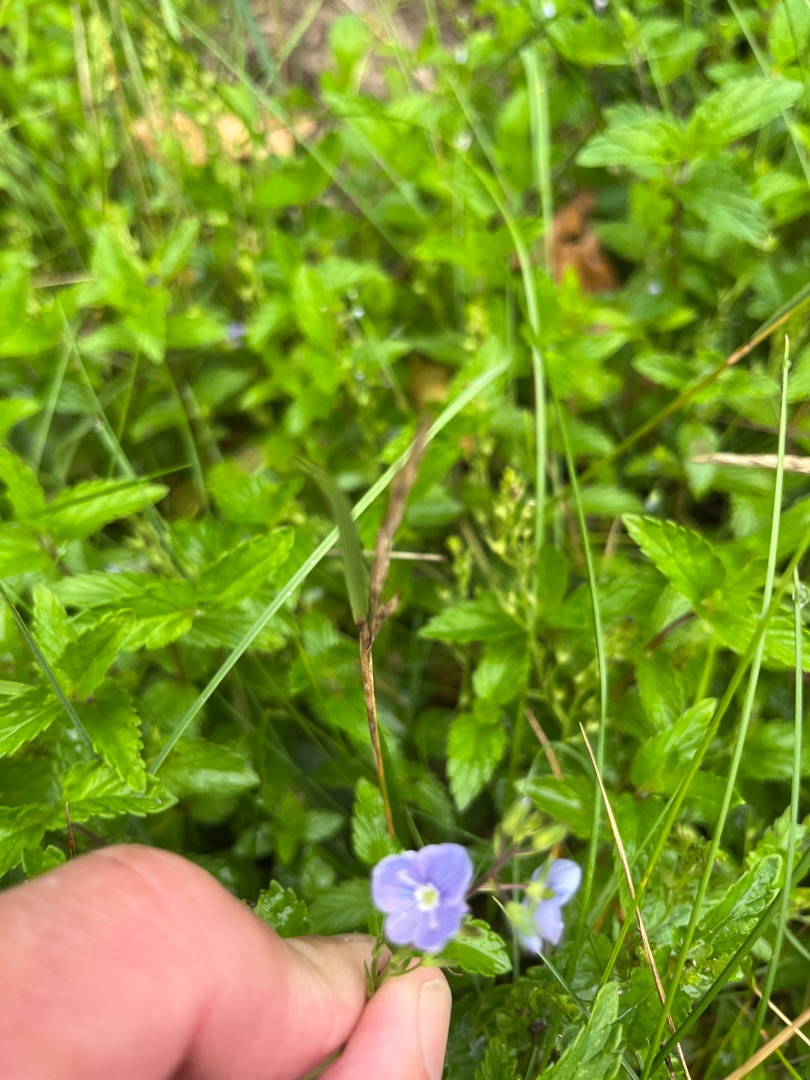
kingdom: Plantae
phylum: Tracheophyta
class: Magnoliopsida
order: Lamiales
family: Plantaginaceae
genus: Veronica
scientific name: Veronica chamaedrys
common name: Tveskægget ærenpris
